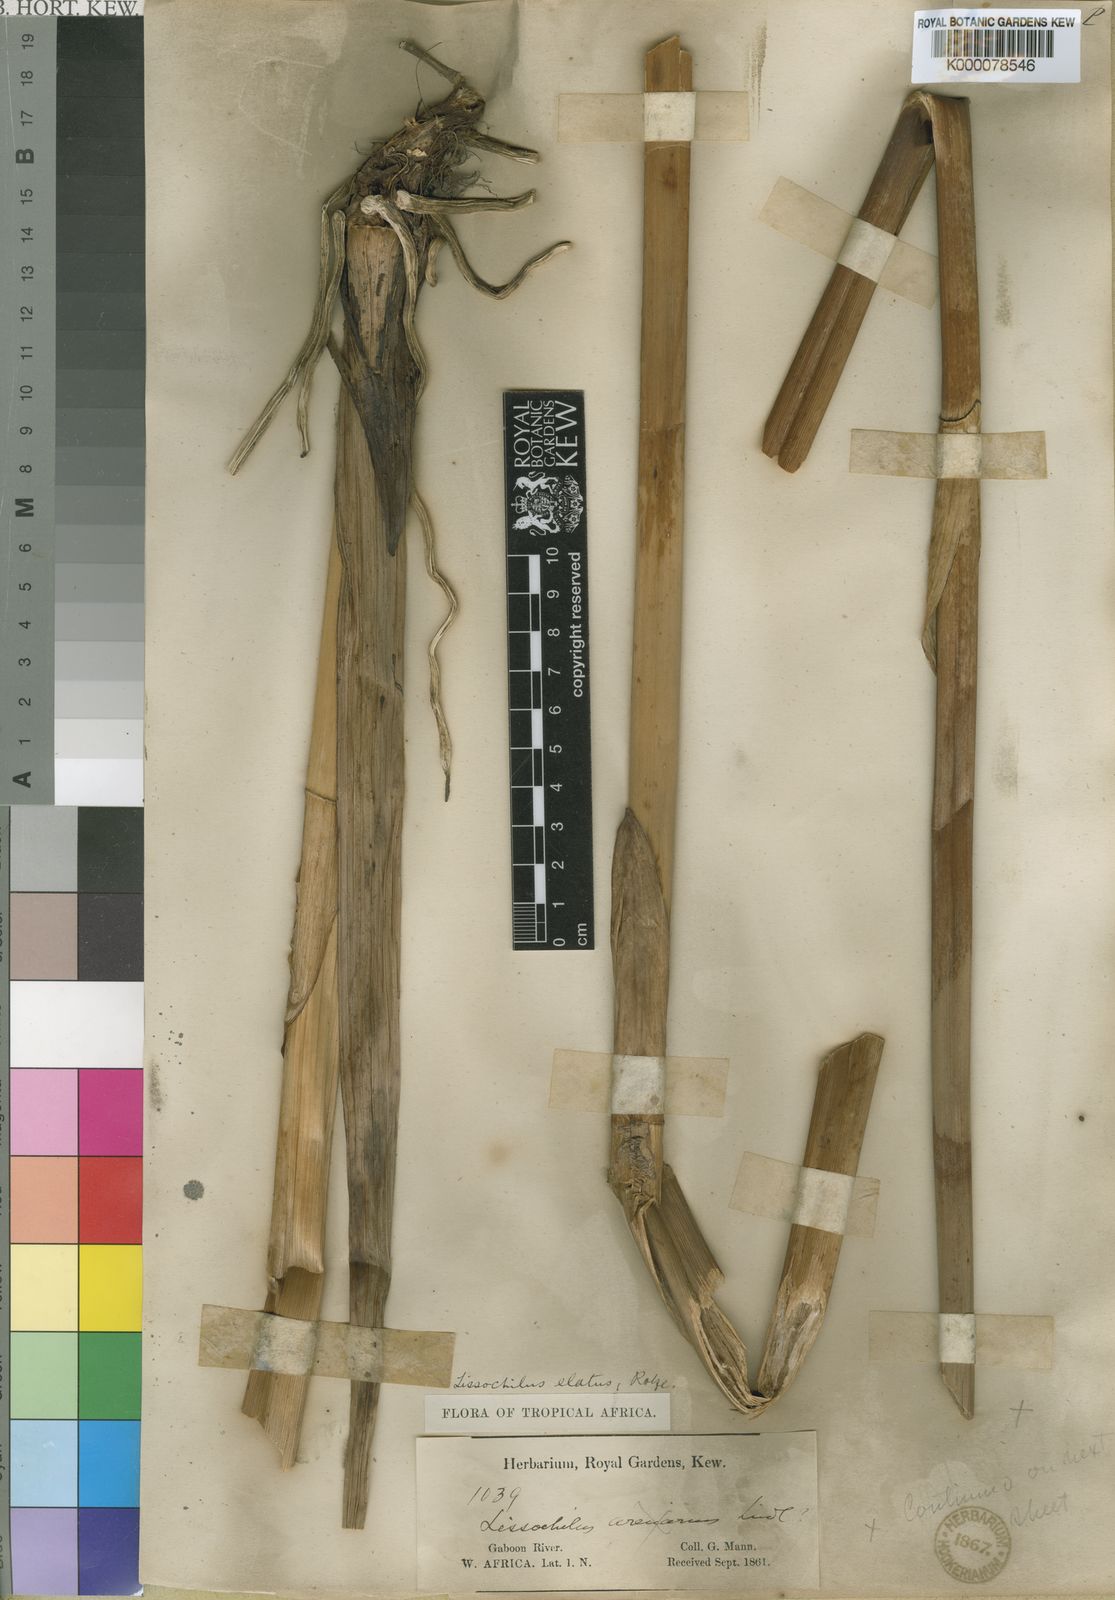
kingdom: Plantae
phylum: Tracheophyta
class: Liliopsida
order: Asparagales
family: Orchidaceae
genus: Eulophia
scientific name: Eulophia bouliawongo
